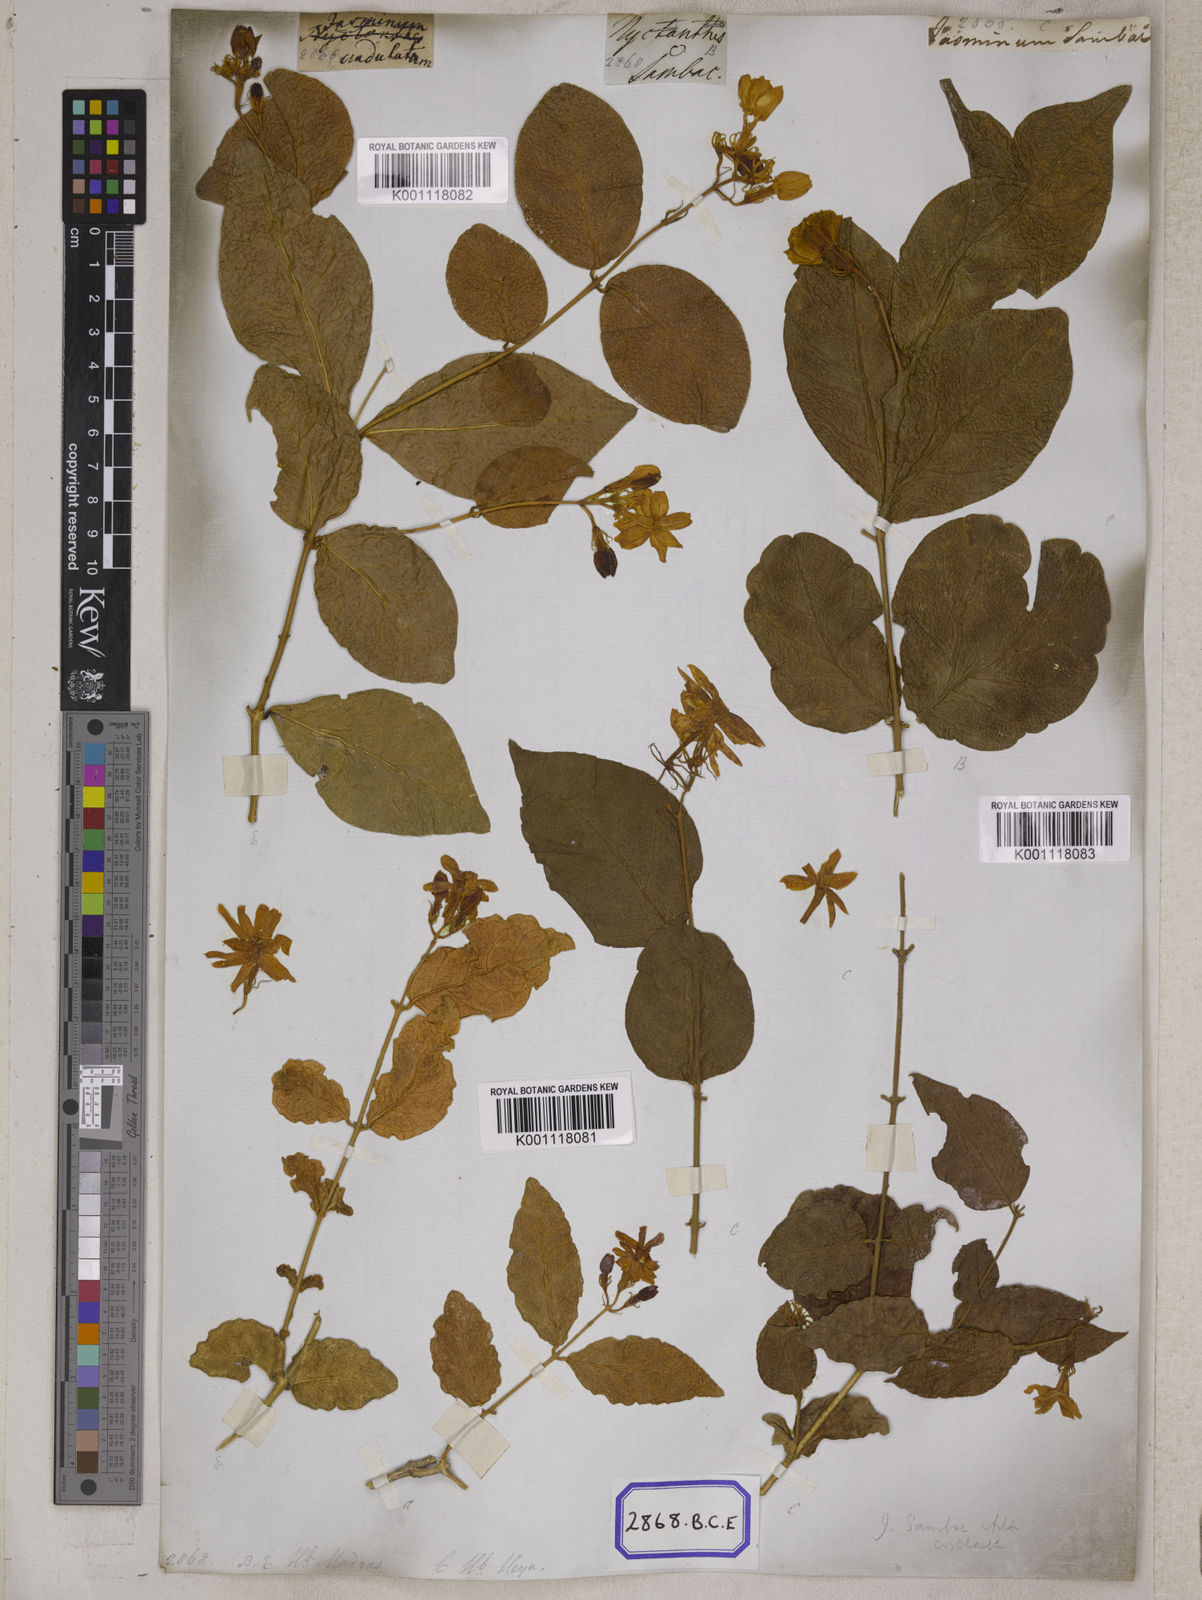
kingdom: Plantae
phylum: Tracheophyta
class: Magnoliopsida
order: Lamiales
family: Oleaceae
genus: Jasminum
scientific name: Jasminum sambac
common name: Arabian jasmine
